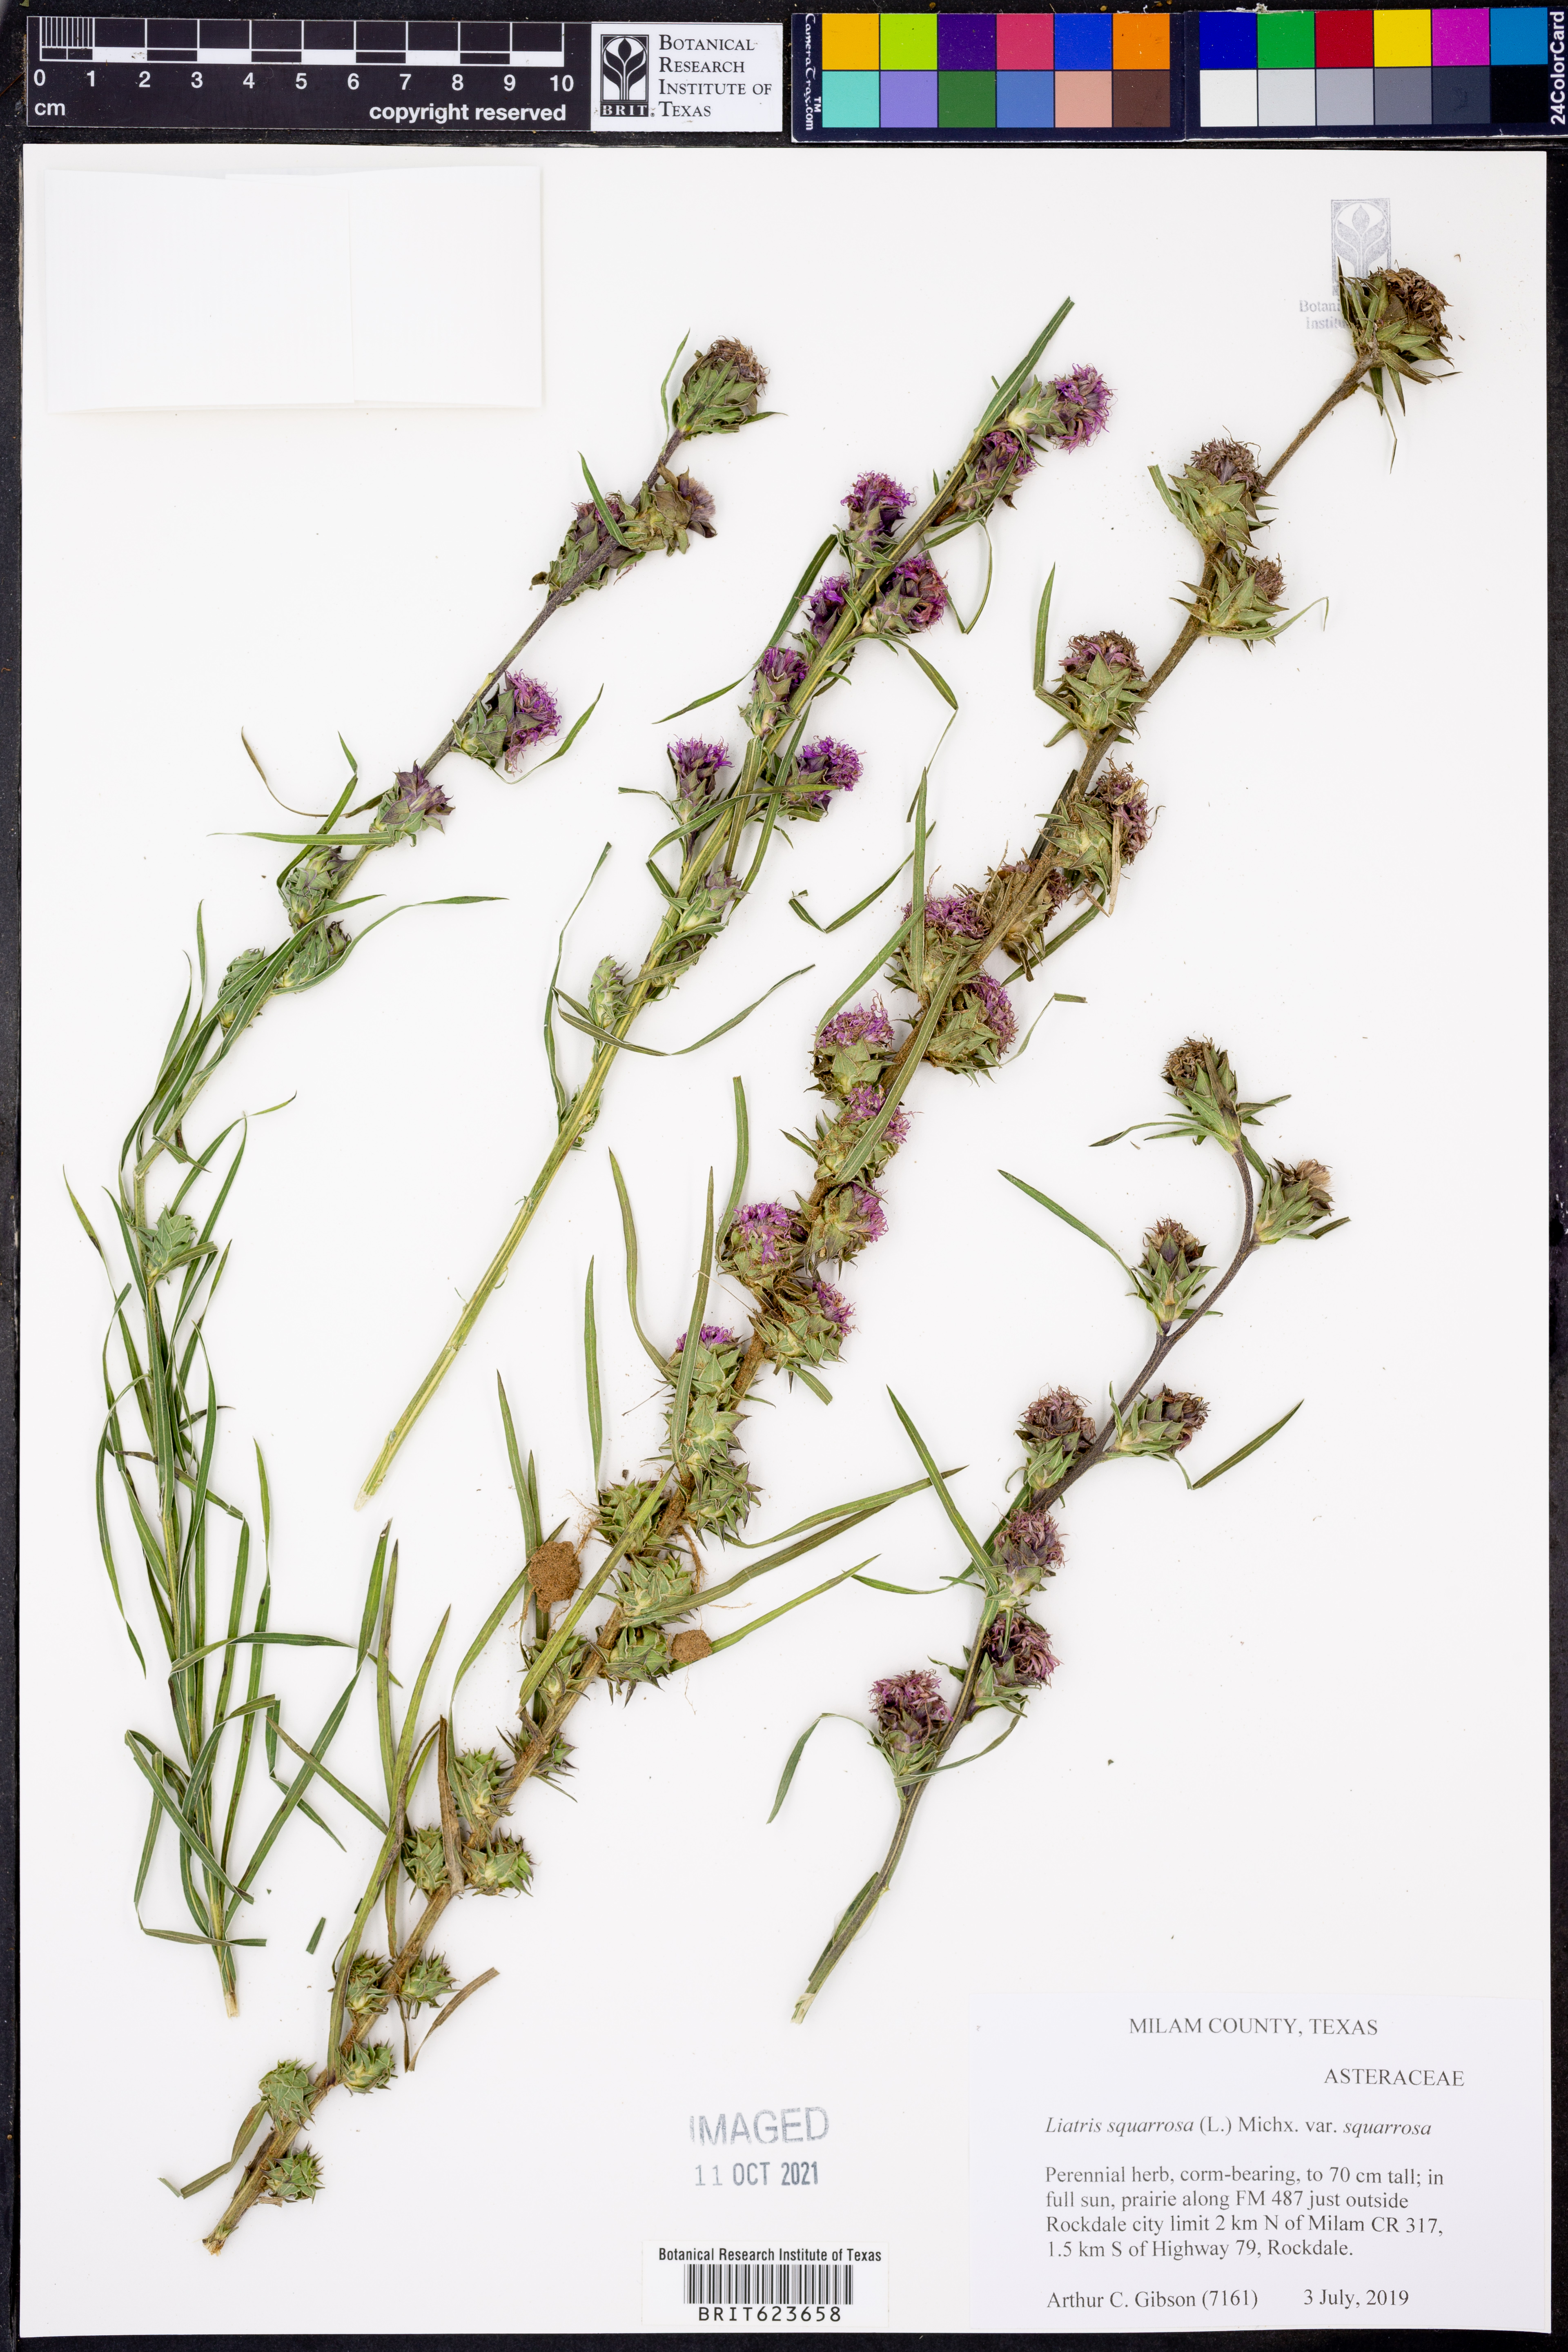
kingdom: Plantae
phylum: Tracheophyta
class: Magnoliopsida
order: Asterales
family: Asteraceae
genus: Liatris
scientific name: Liatris squarrosa
